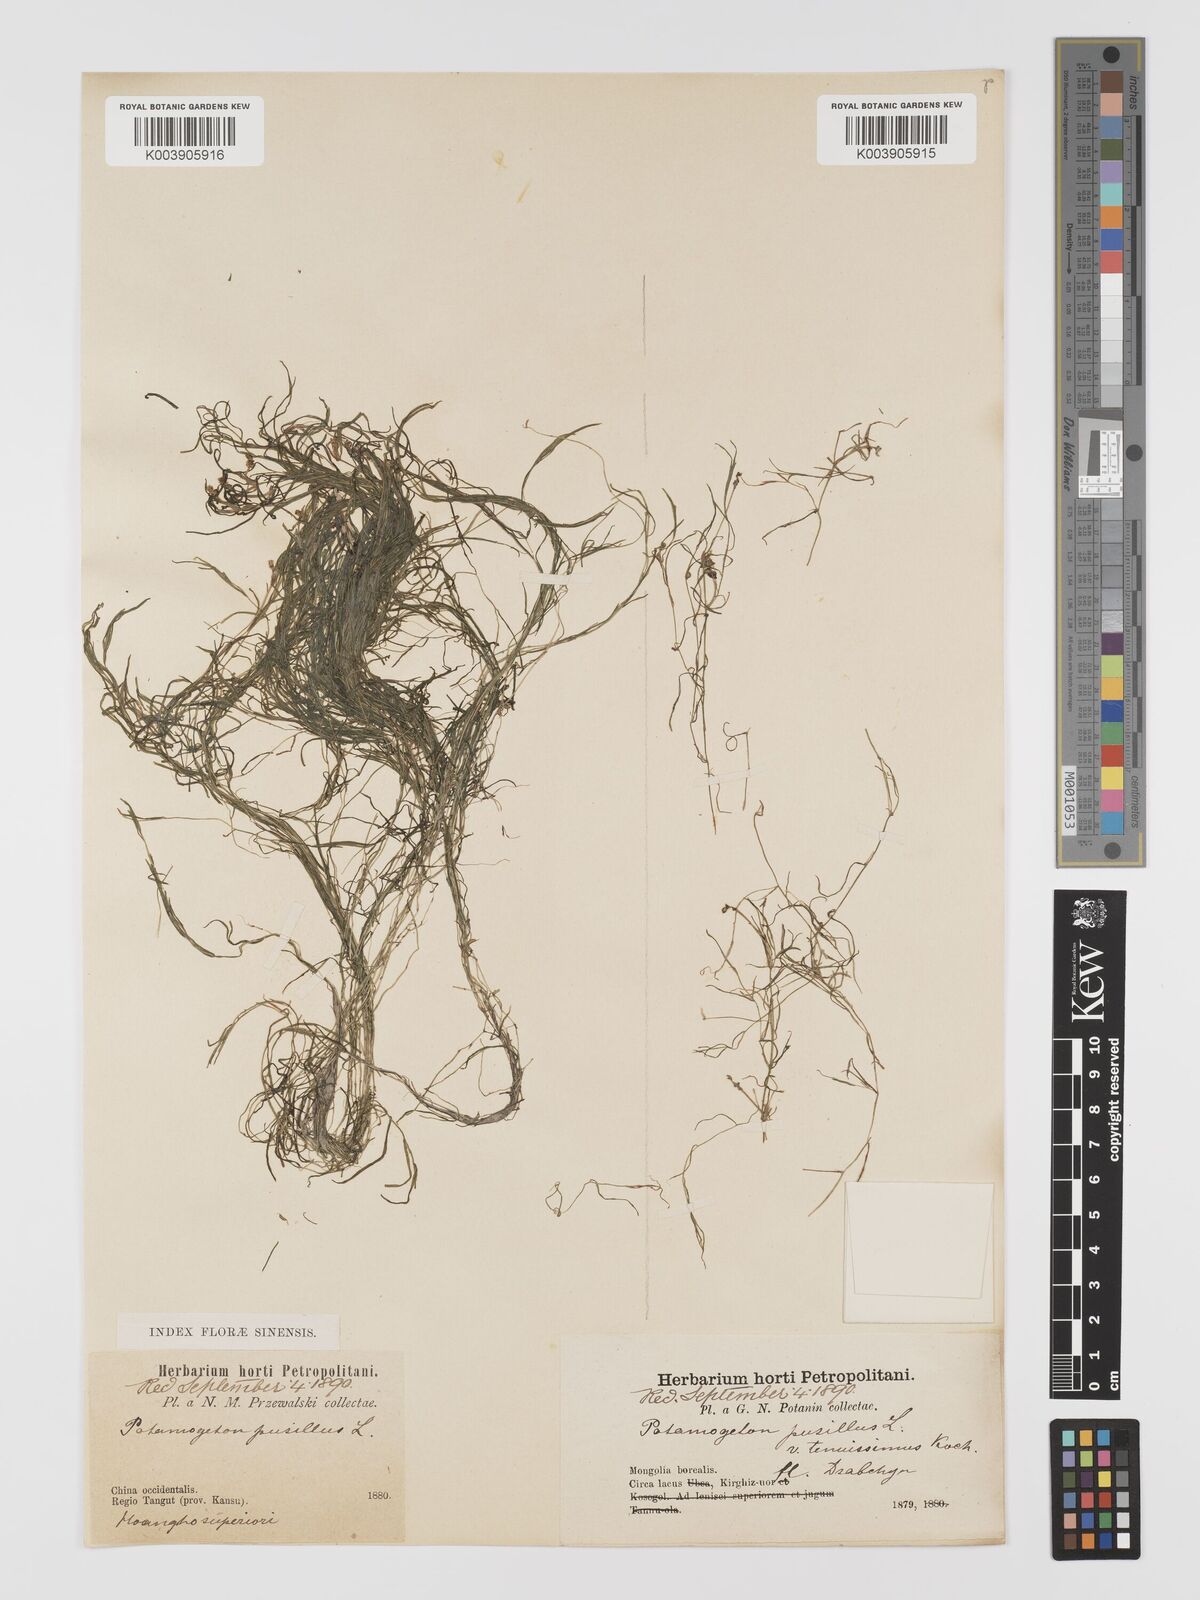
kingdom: Plantae
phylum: Tracheophyta
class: Liliopsida
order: Alismatales
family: Potamogetonaceae
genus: Potamogeton
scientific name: Potamogeton pusillus
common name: Lesser pondweed
